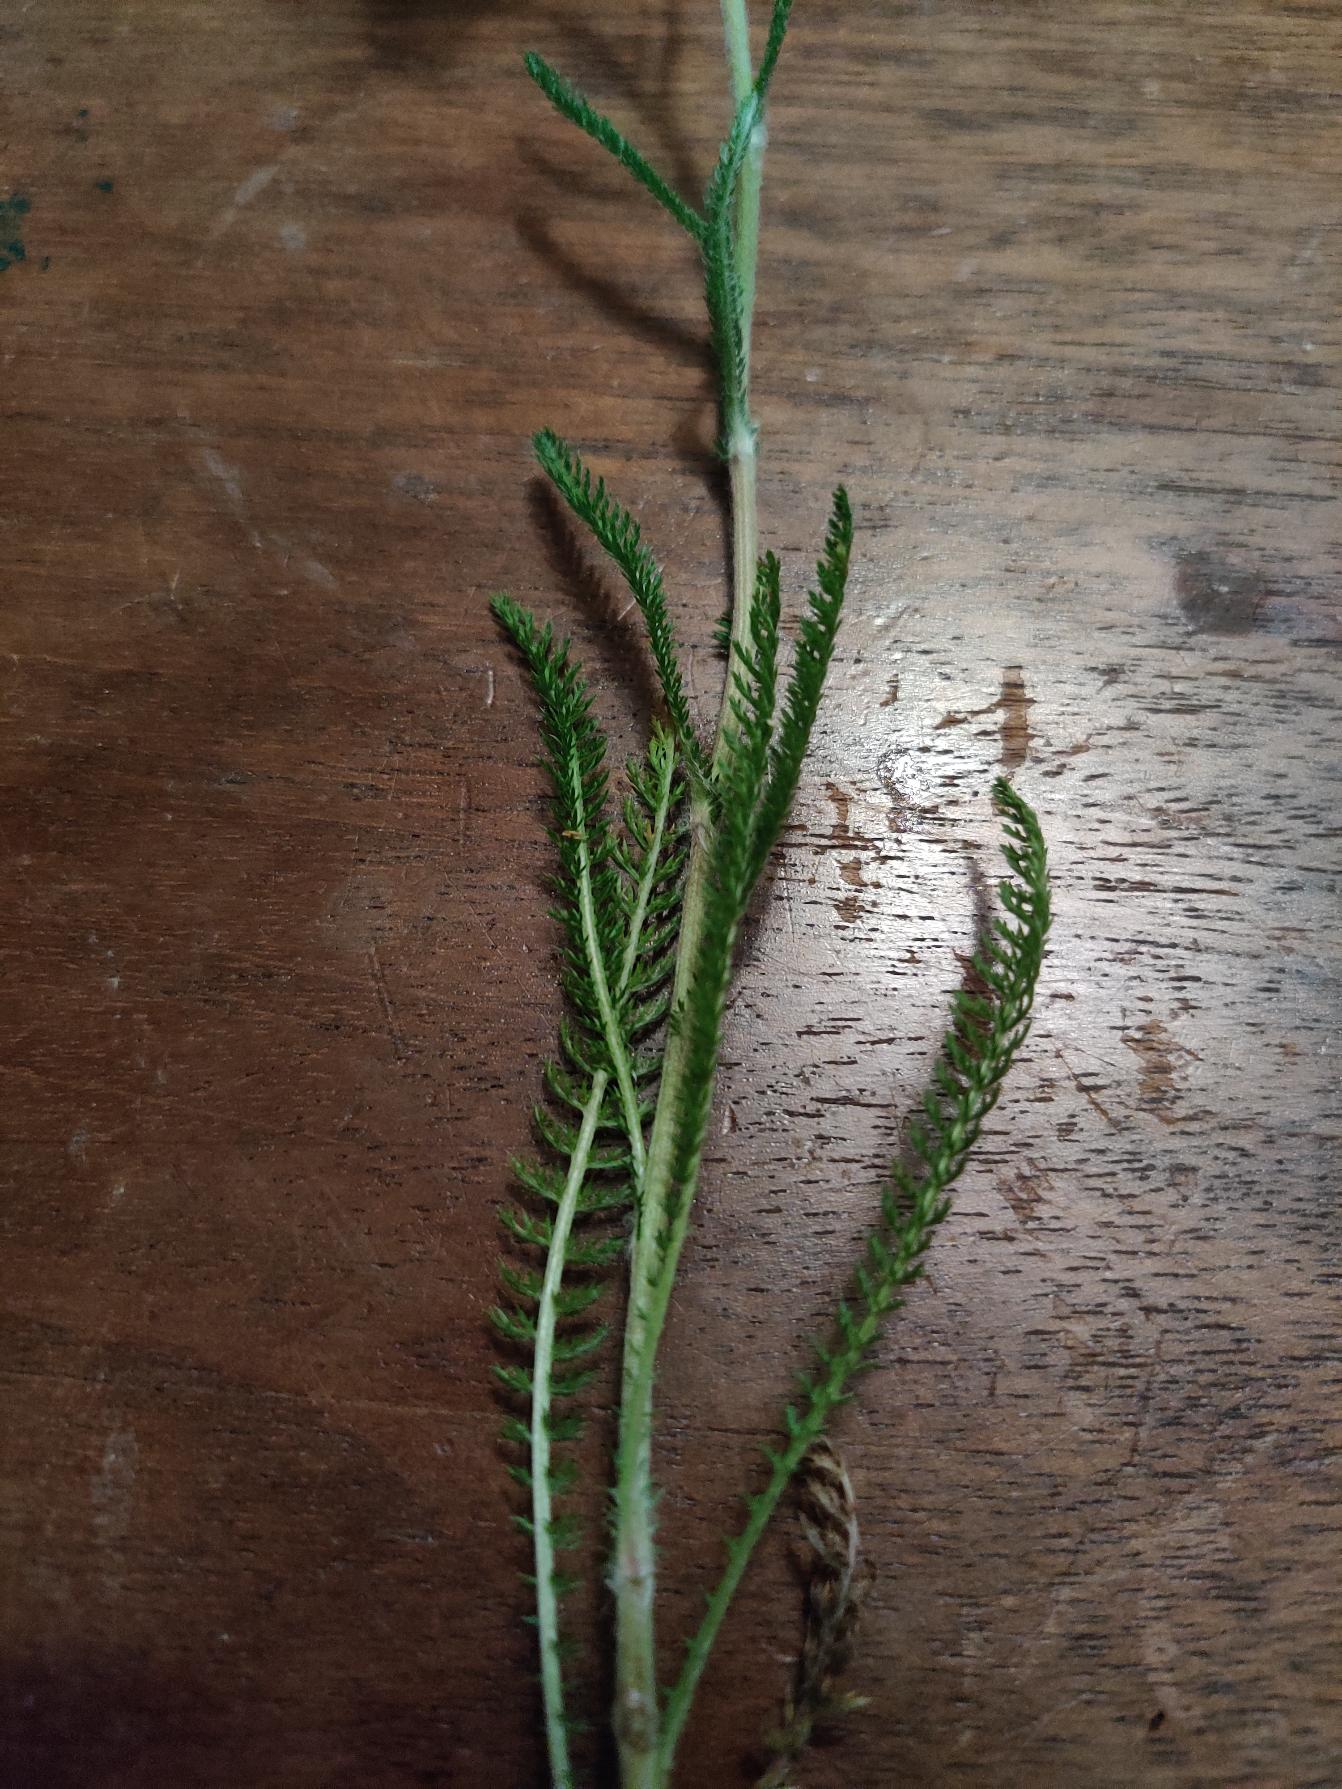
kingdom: Plantae
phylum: Tracheophyta
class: Magnoliopsida
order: Asterales
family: Asteraceae
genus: Achillea
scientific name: Achillea millefolium
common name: Almindelig røllike
